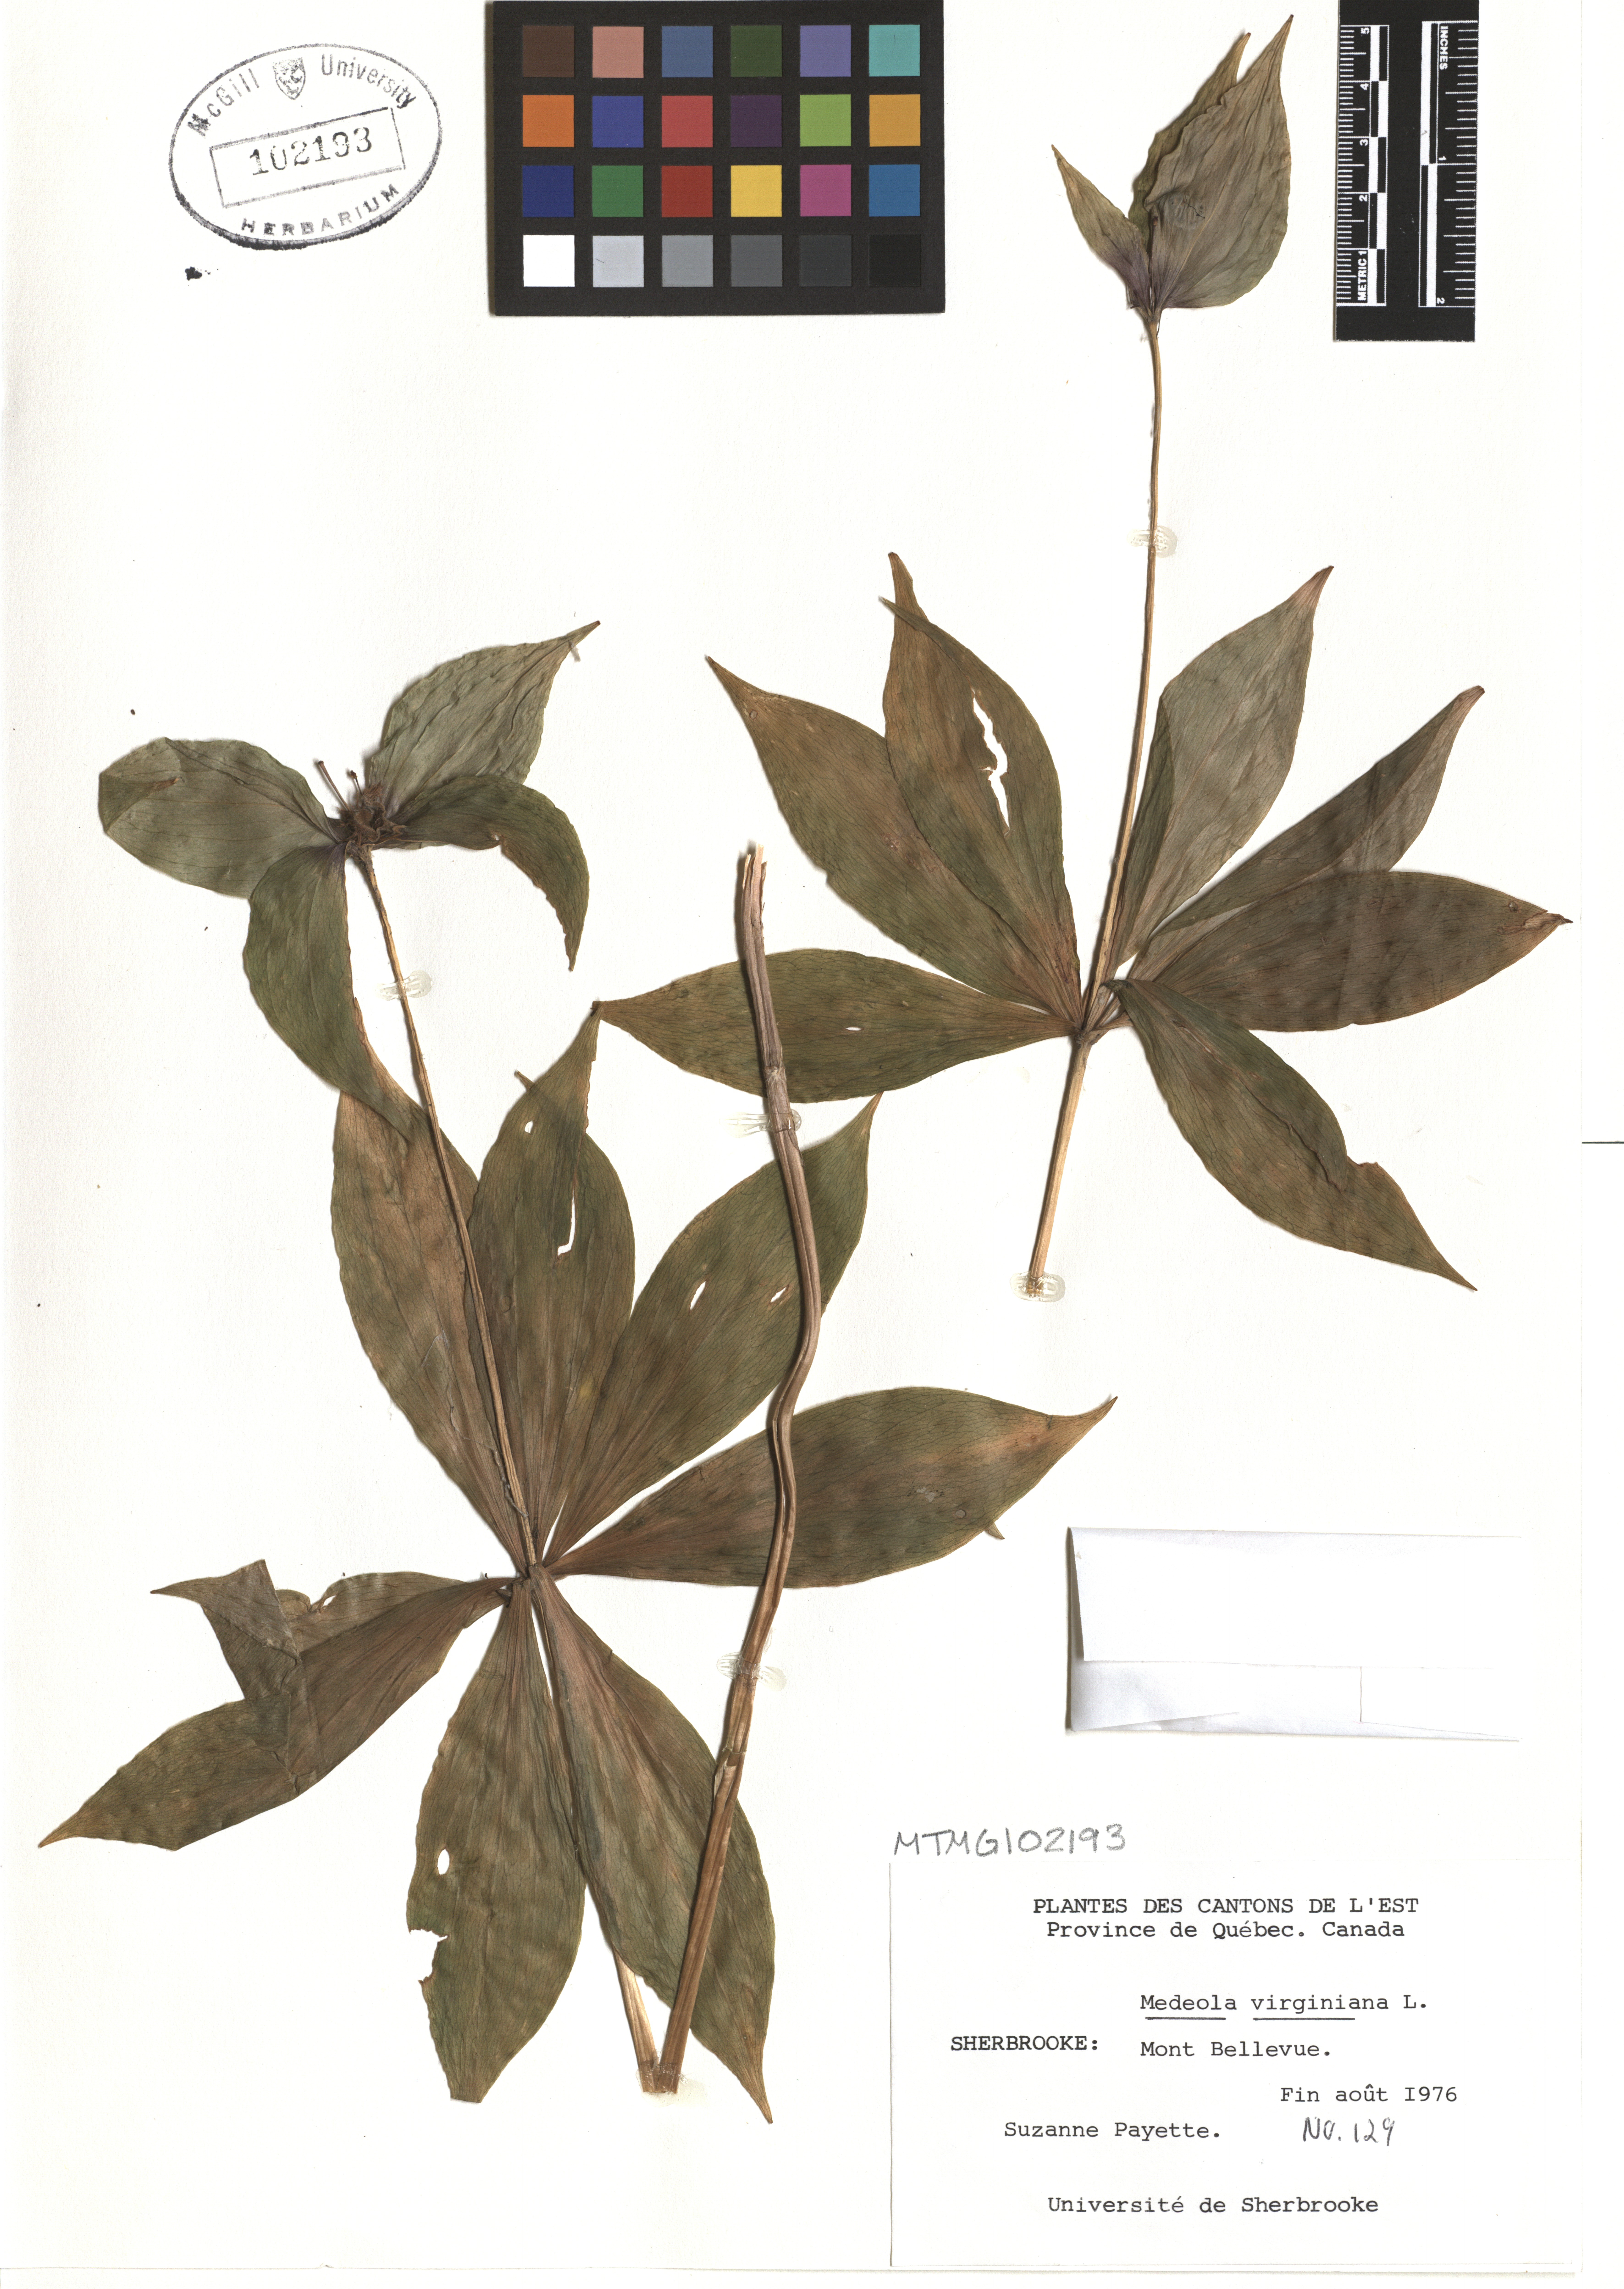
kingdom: Plantae
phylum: Tracheophyta
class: Liliopsida
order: Liliales
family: Liliaceae
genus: Medeola
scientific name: Medeola virginiana
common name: Indian cucumber-root
